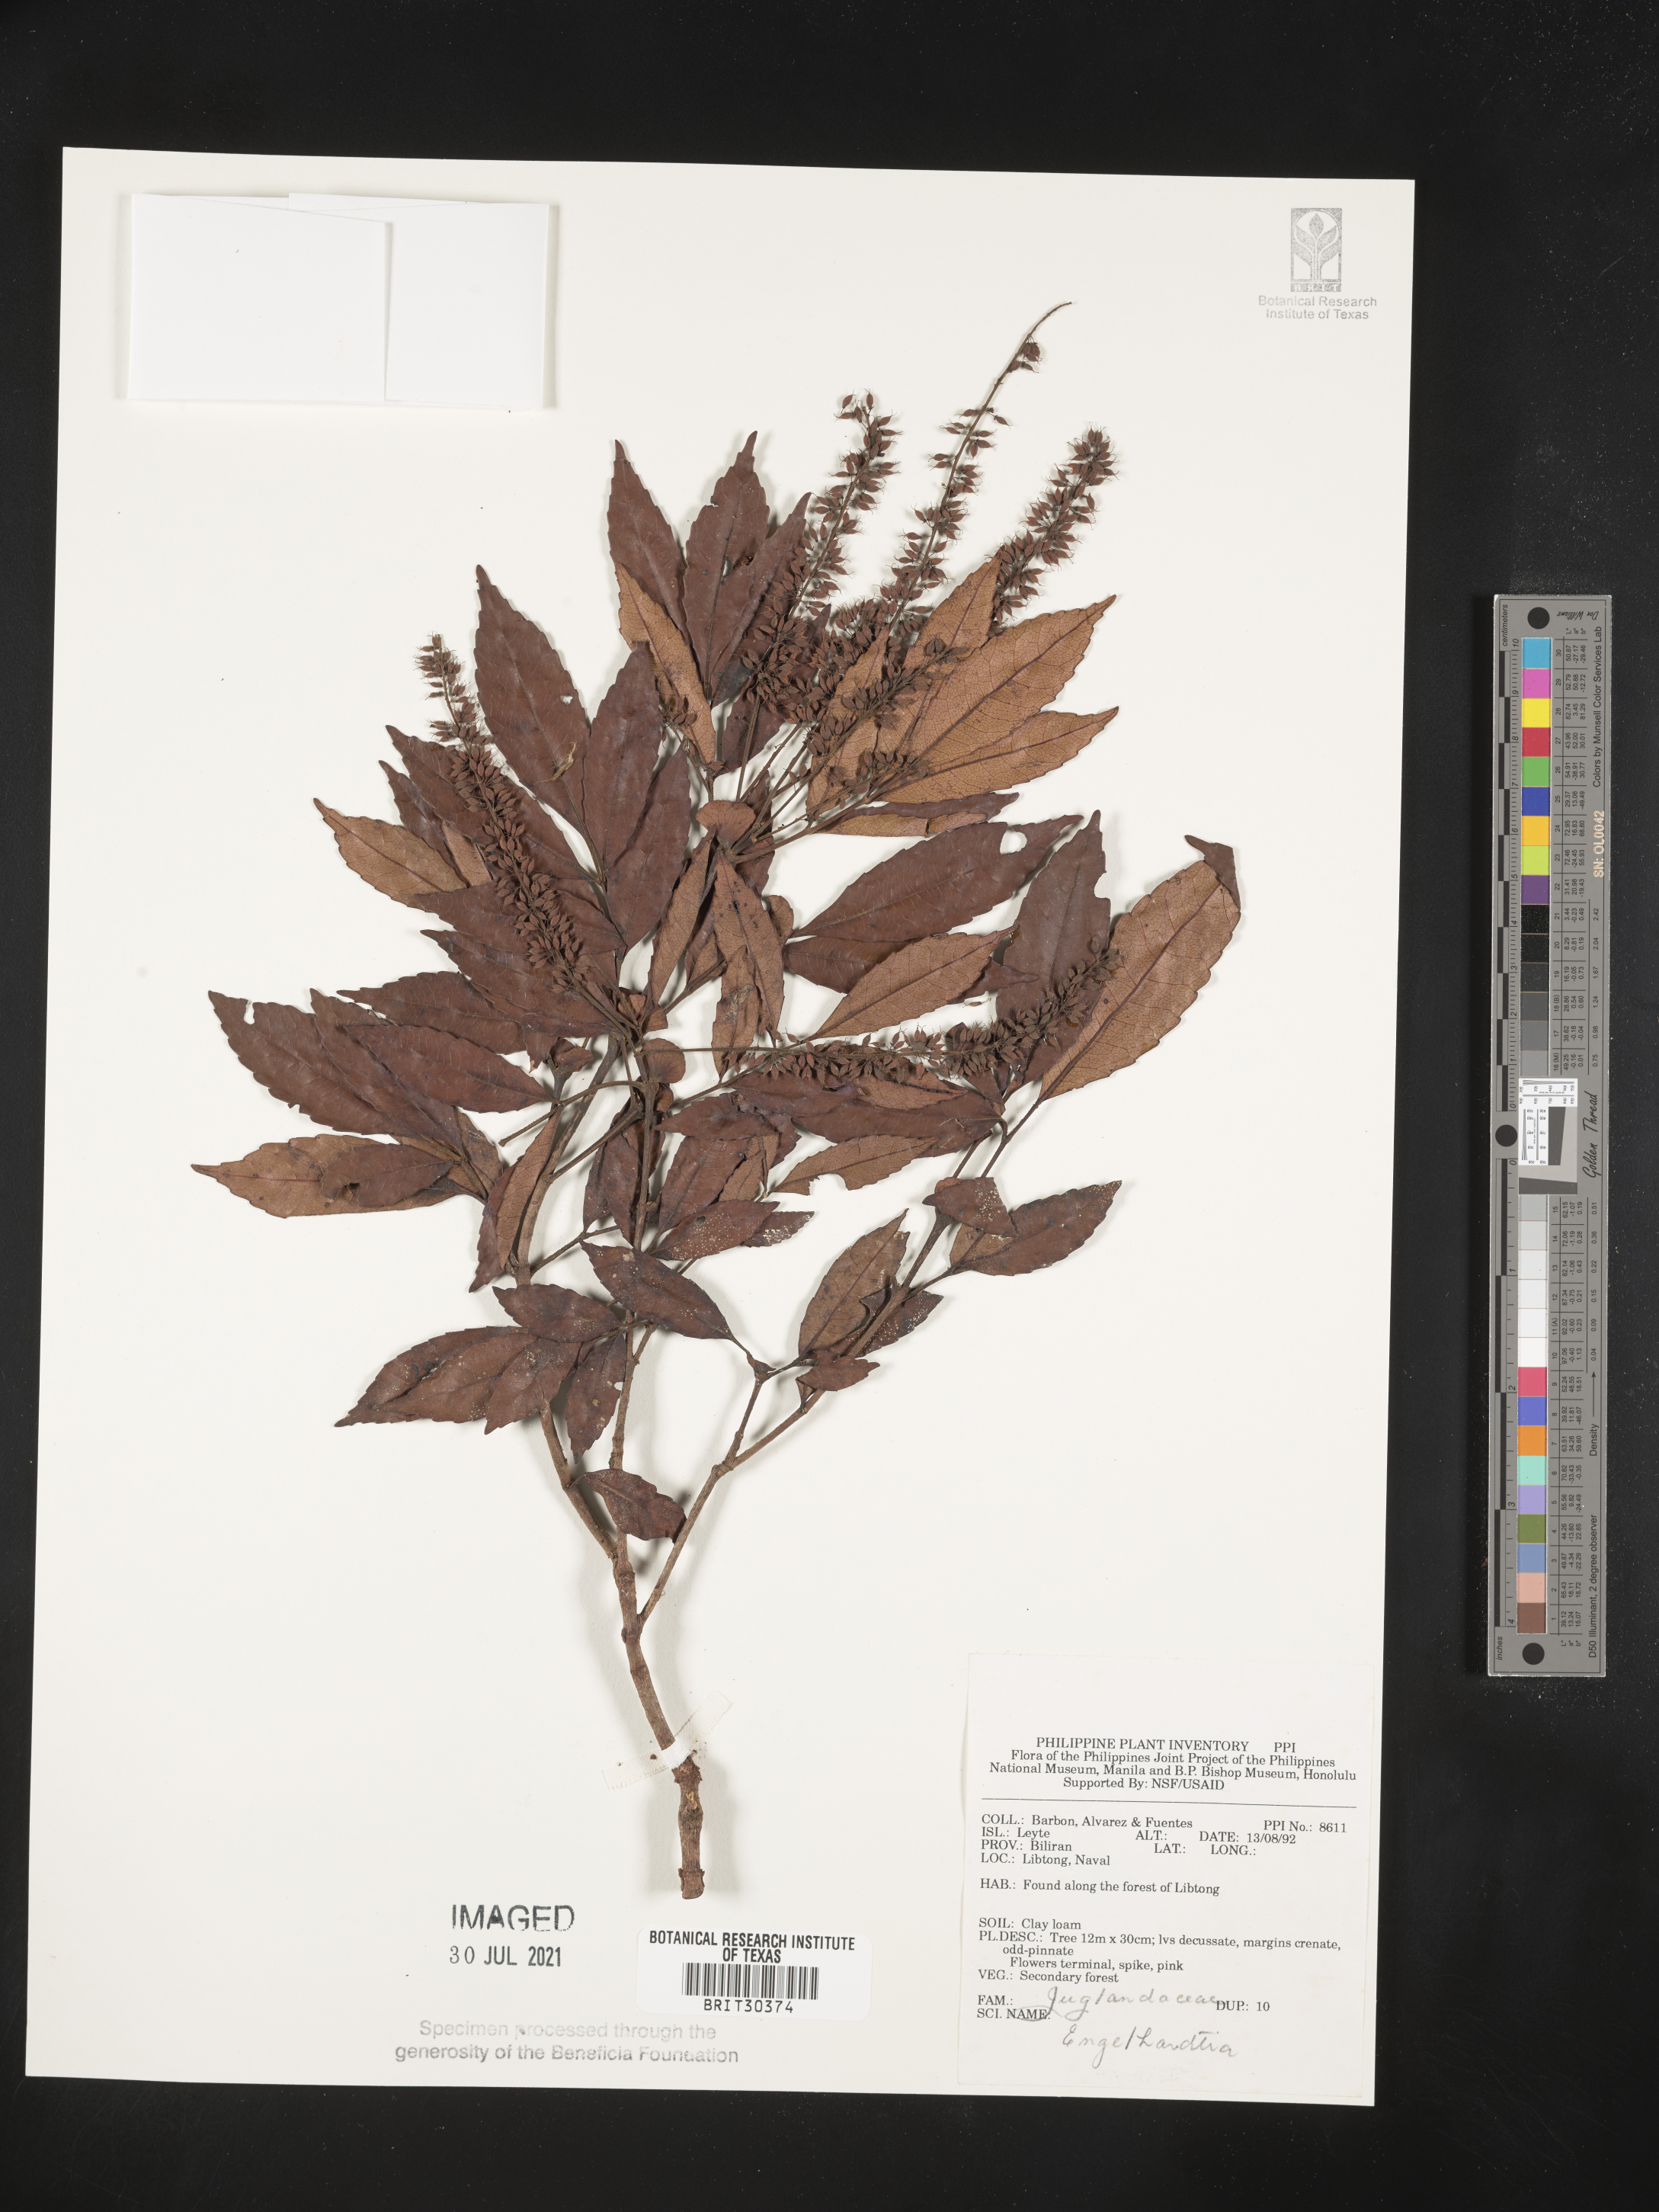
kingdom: Plantae
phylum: Tracheophyta
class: Magnoliopsida
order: Fagales
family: Juglandaceae
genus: Englehardtia
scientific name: Englehardtia
